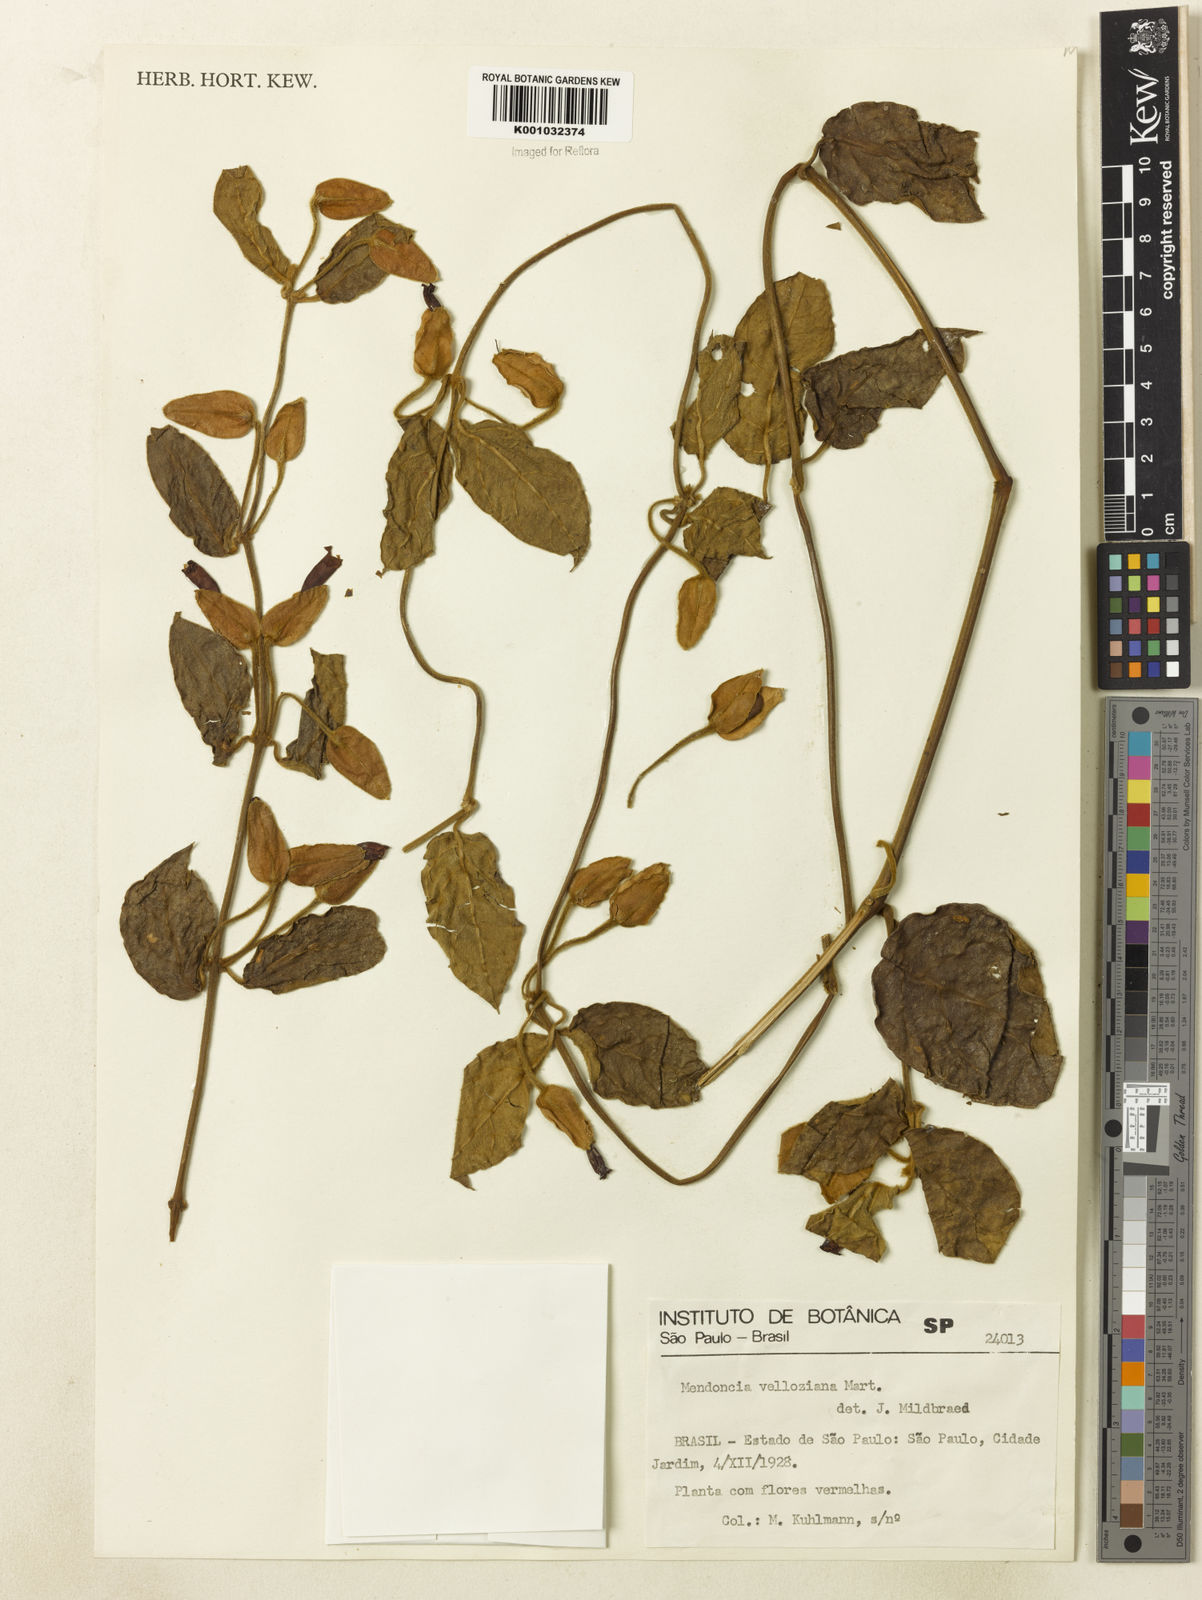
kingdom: Plantae
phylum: Tracheophyta
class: Magnoliopsida
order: Lamiales
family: Acanthaceae
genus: Mendoncia
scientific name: Mendoncia velloziana
